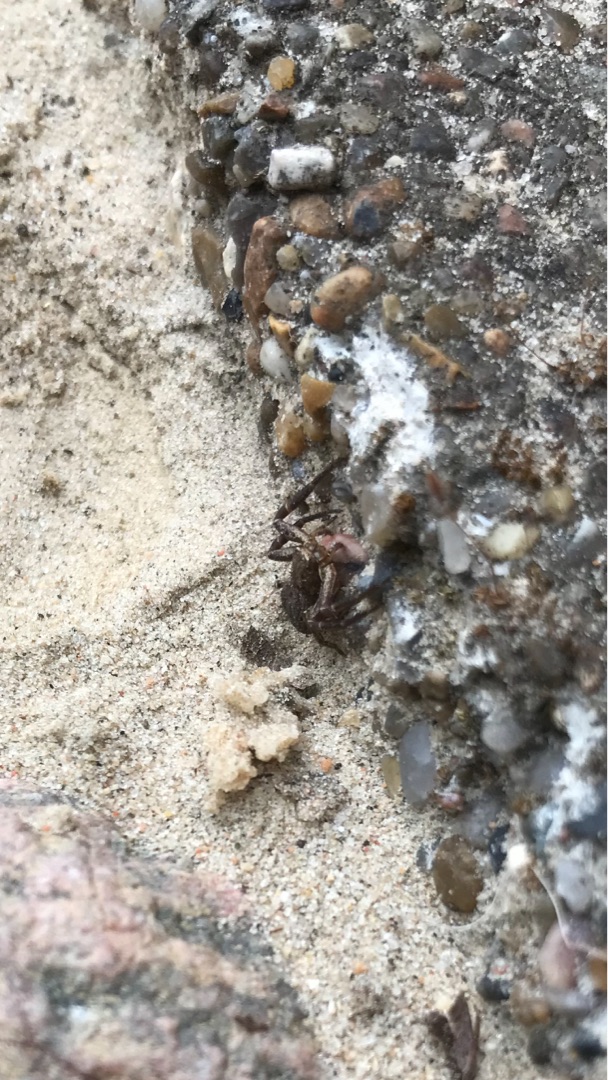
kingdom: Animalia
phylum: Arthropoda
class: Arachnida
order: Araneae
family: Thomisidae
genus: Xysticus
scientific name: Xysticus
